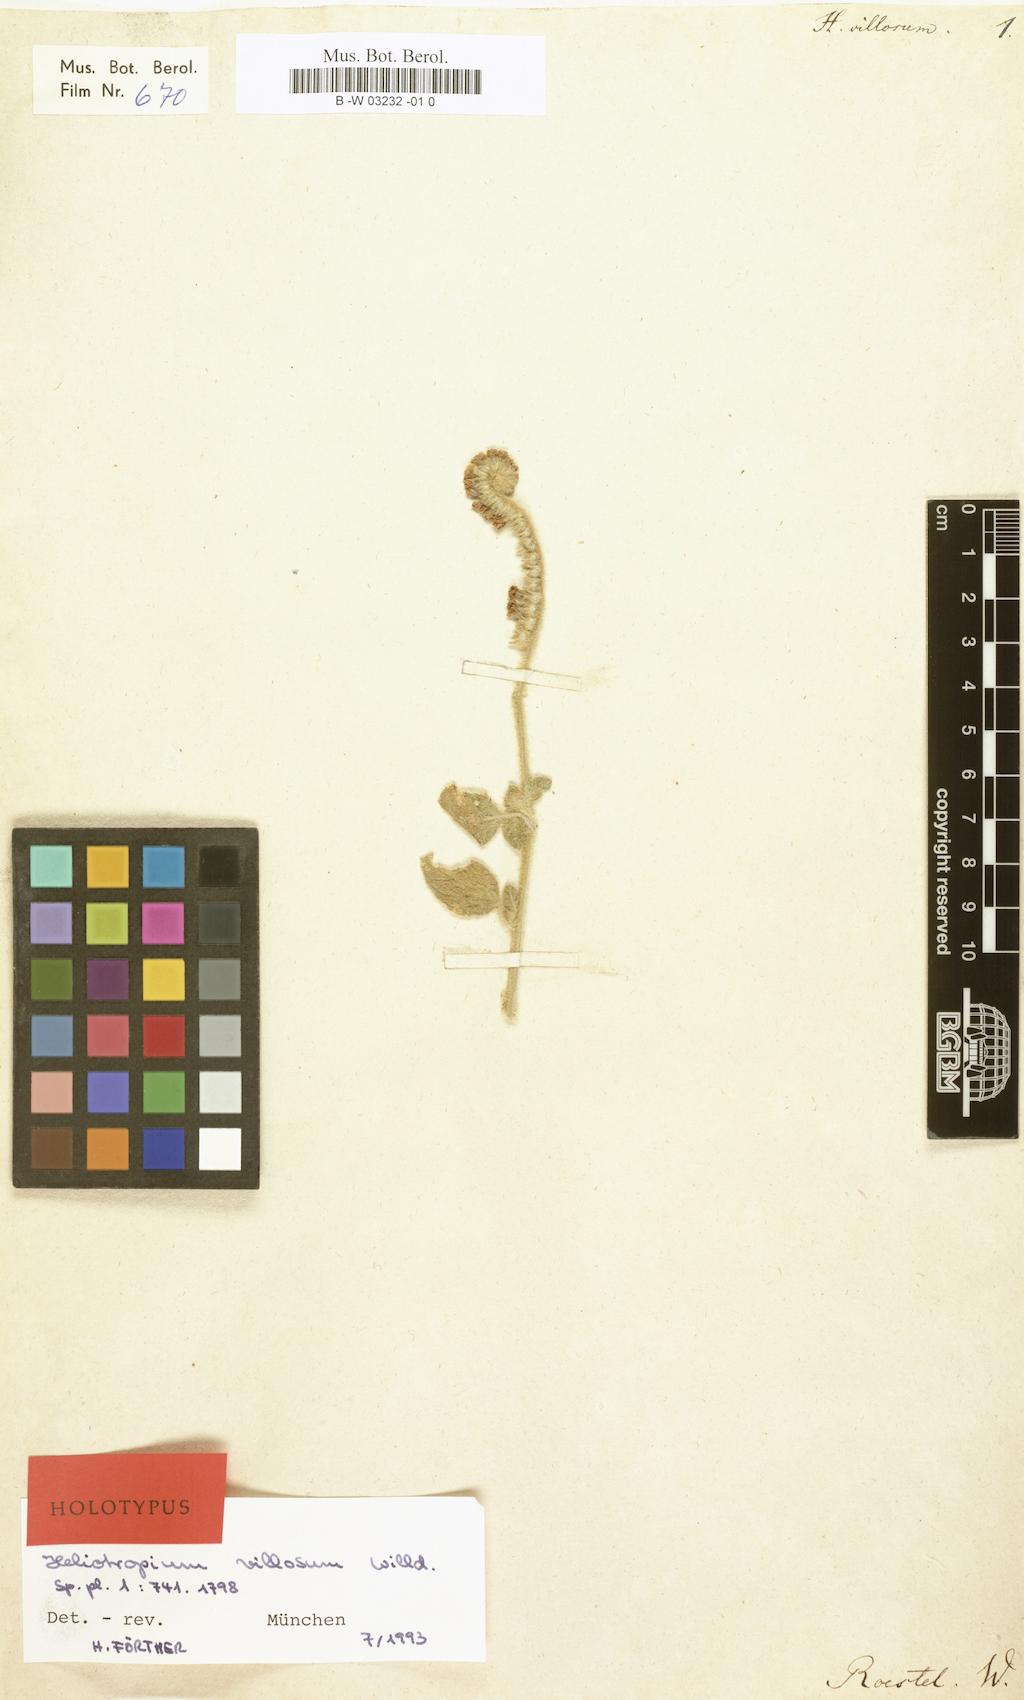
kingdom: Plantae
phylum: Tracheophyta
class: Magnoliopsida
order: Boraginales
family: Heliotropiaceae
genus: Euploca
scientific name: Euploca ovalifolia
